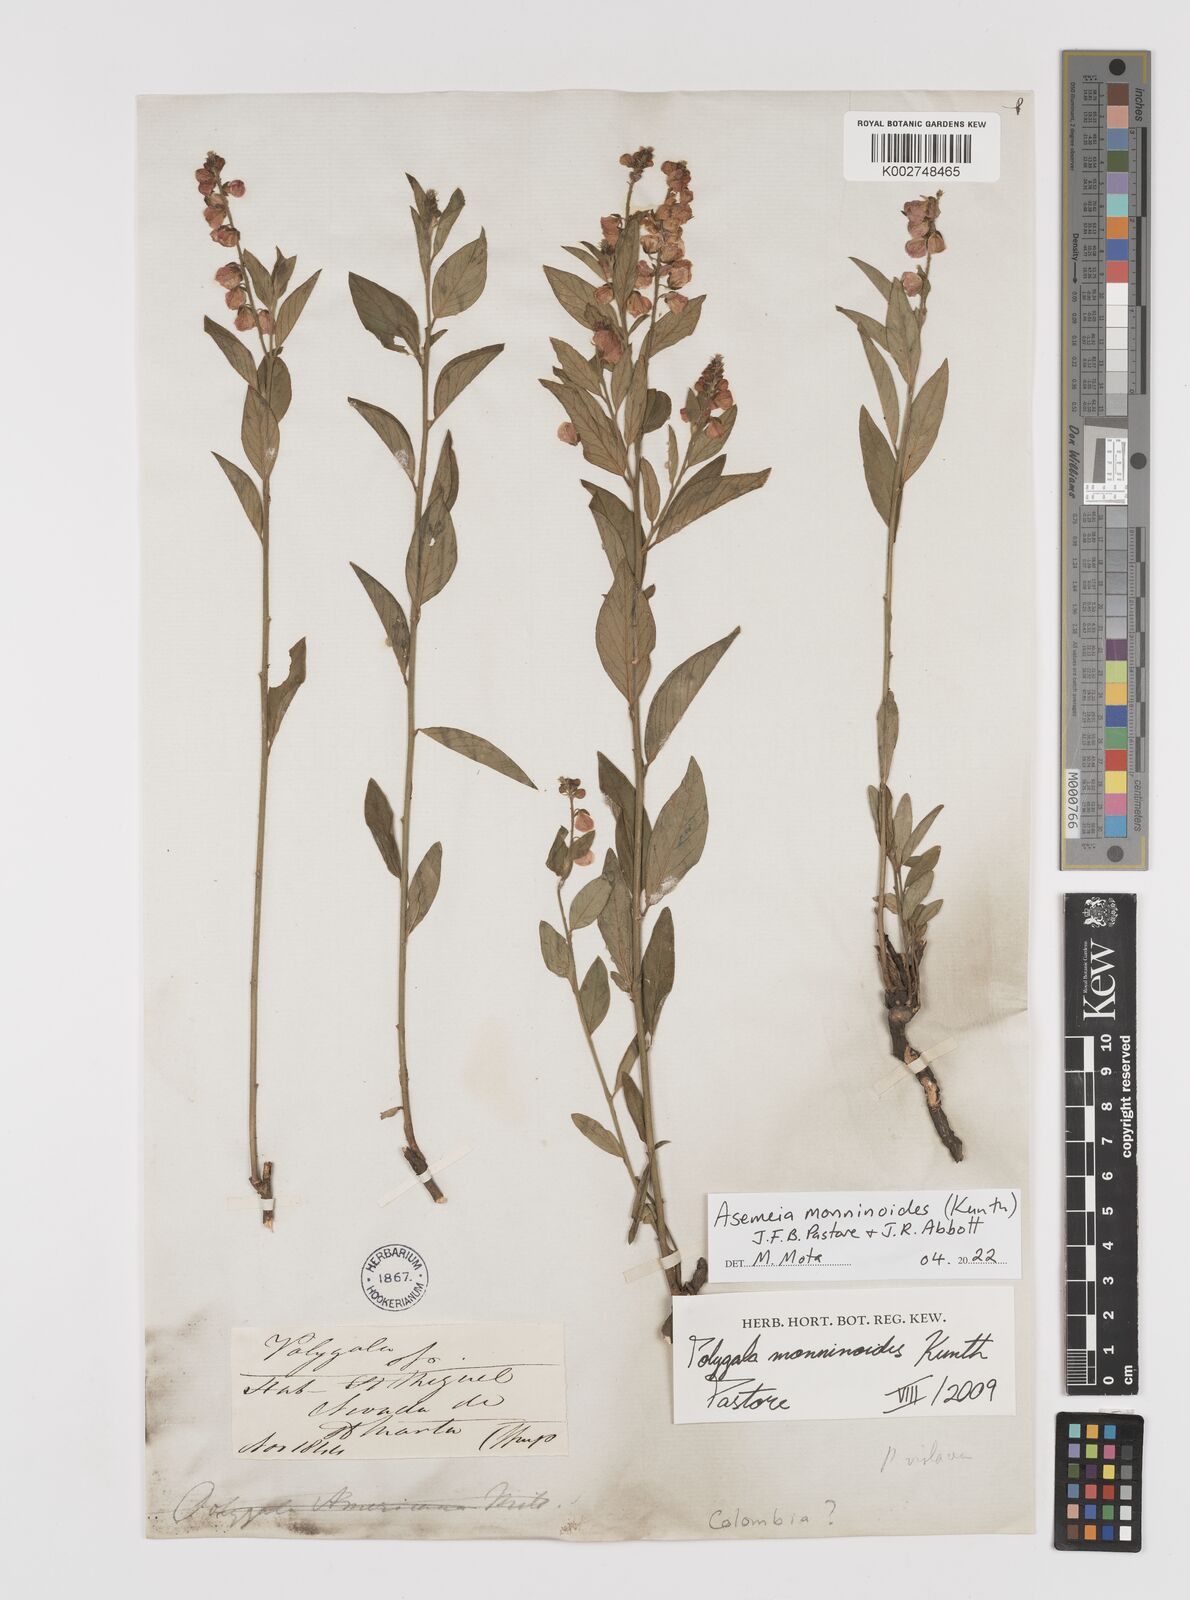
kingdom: Plantae
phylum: Tracheophyta
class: Magnoliopsida
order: Fabales
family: Polygalaceae
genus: Asemeia
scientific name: Asemeia monninoides
